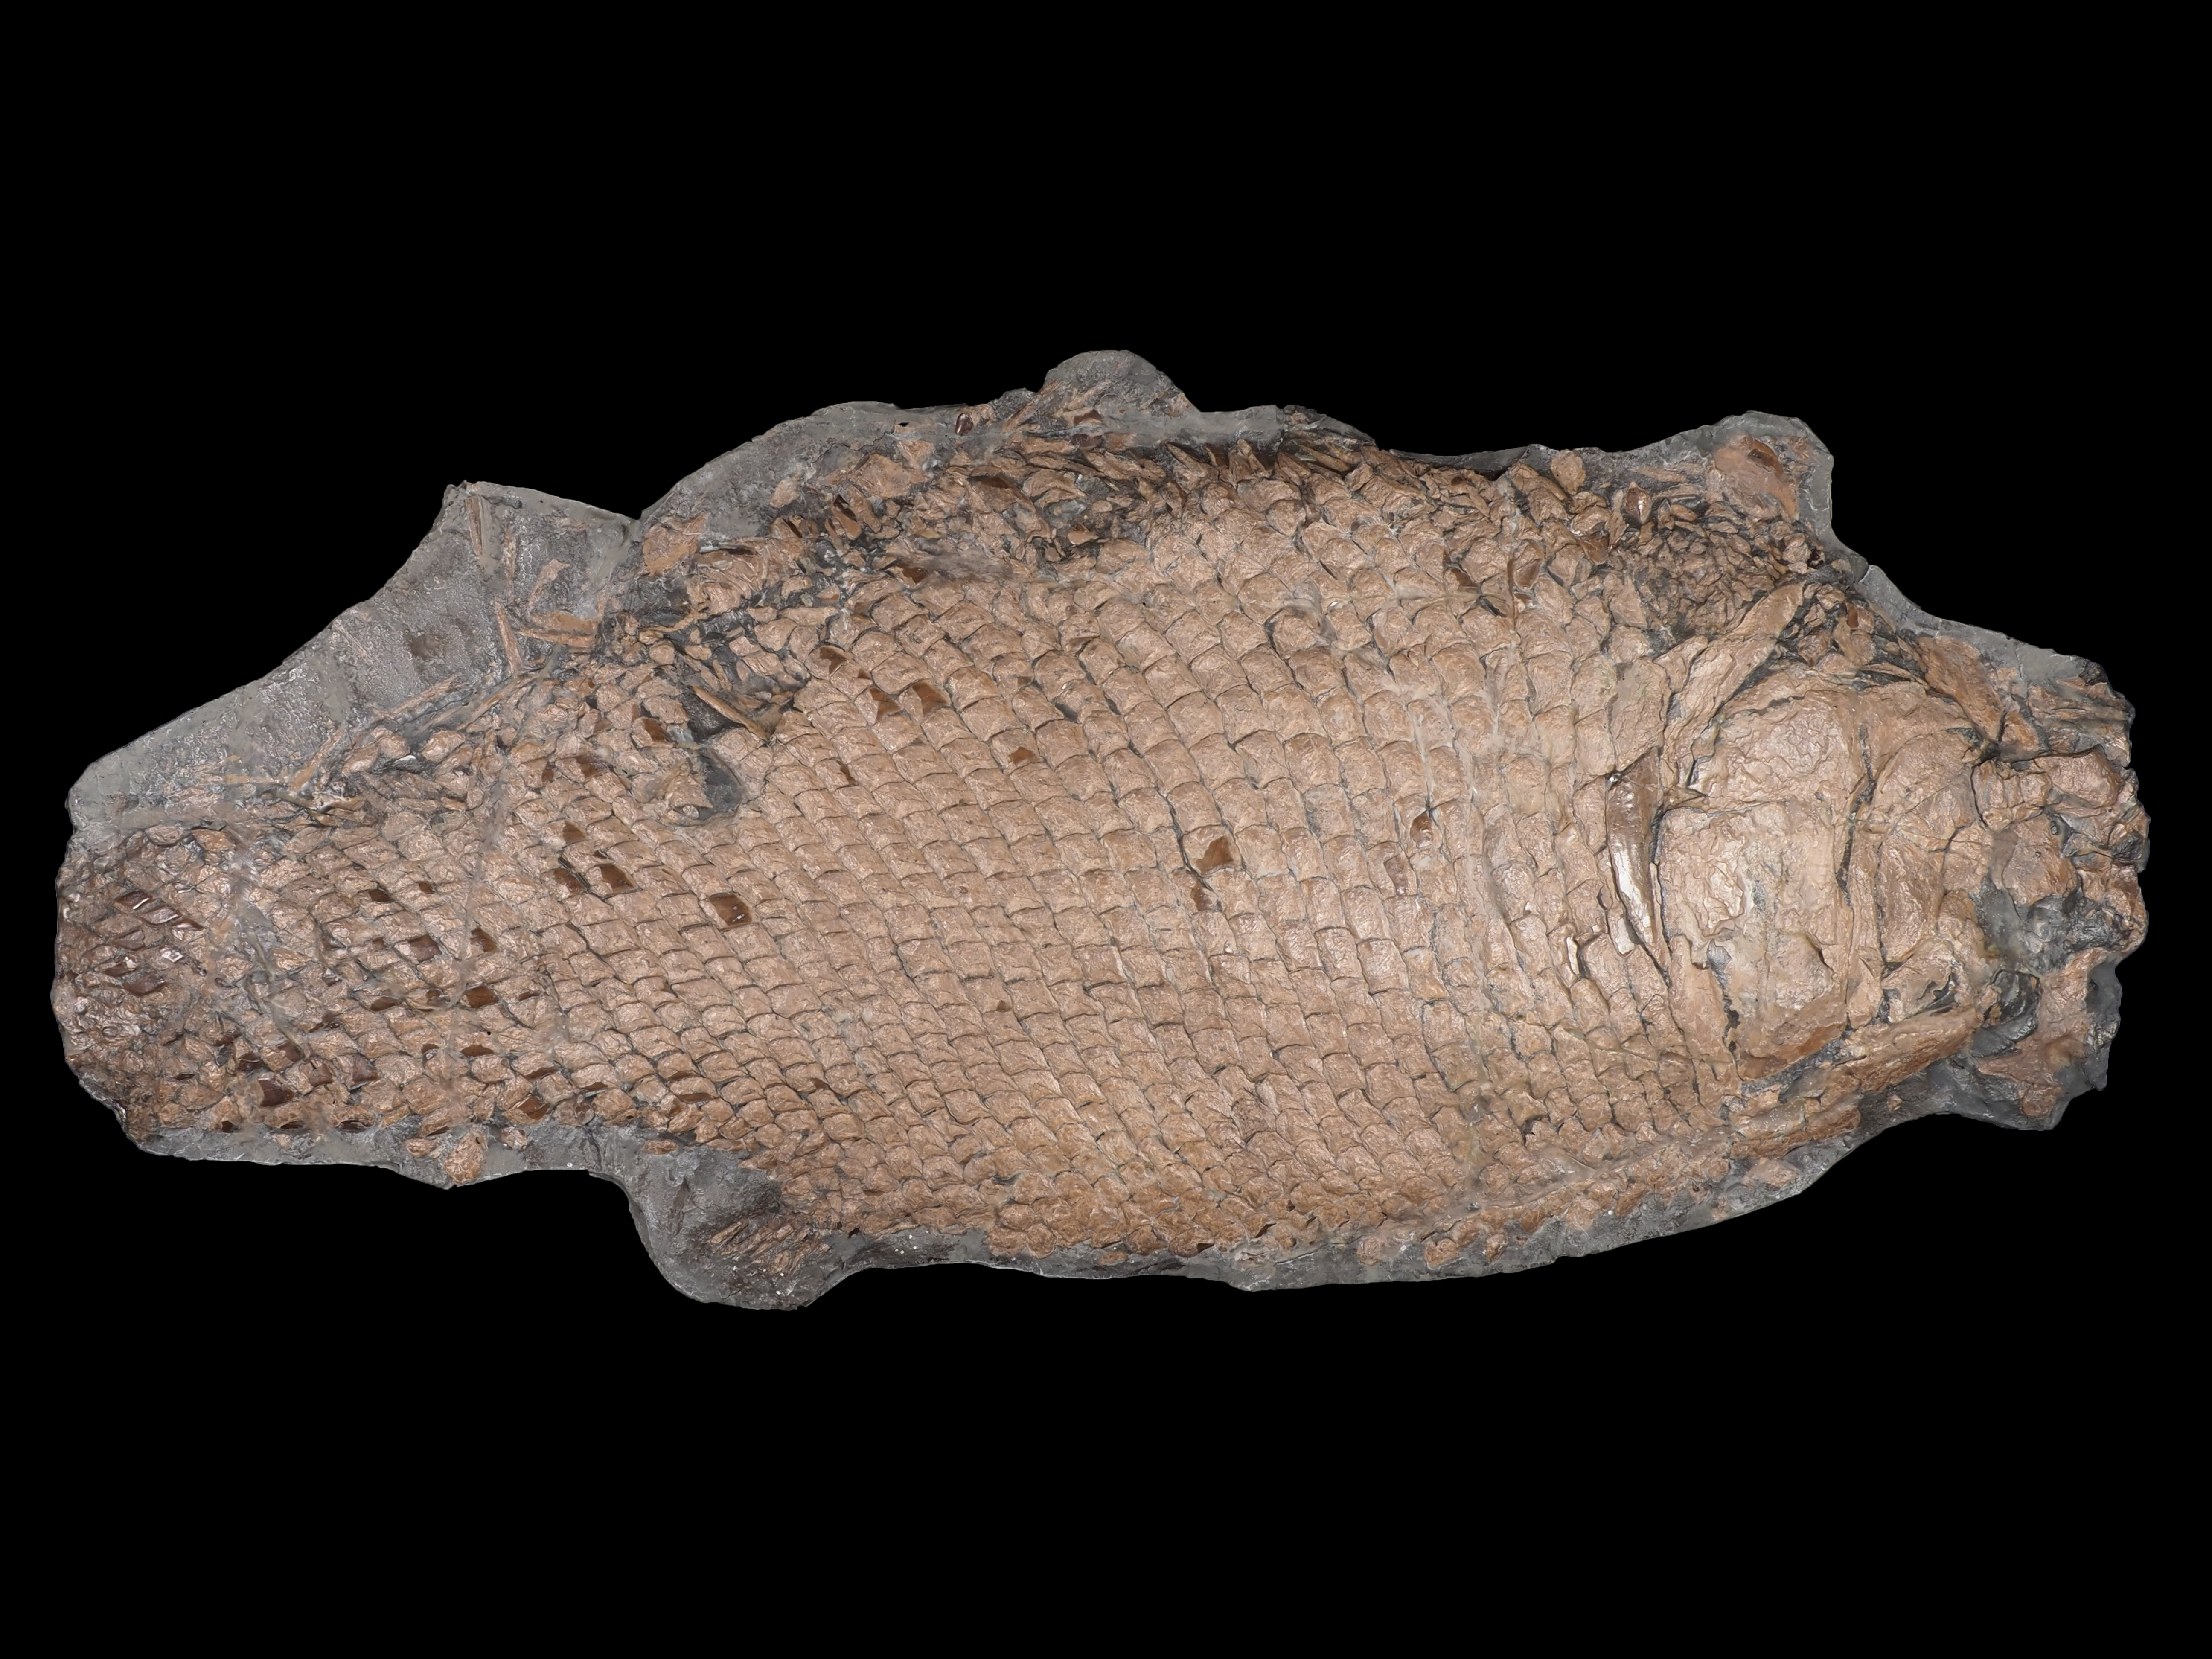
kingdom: Animalia
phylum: Chordata
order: Lepisosteiformes
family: Lepidotidae
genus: Lepidotes
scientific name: Lepidotes elvensis
